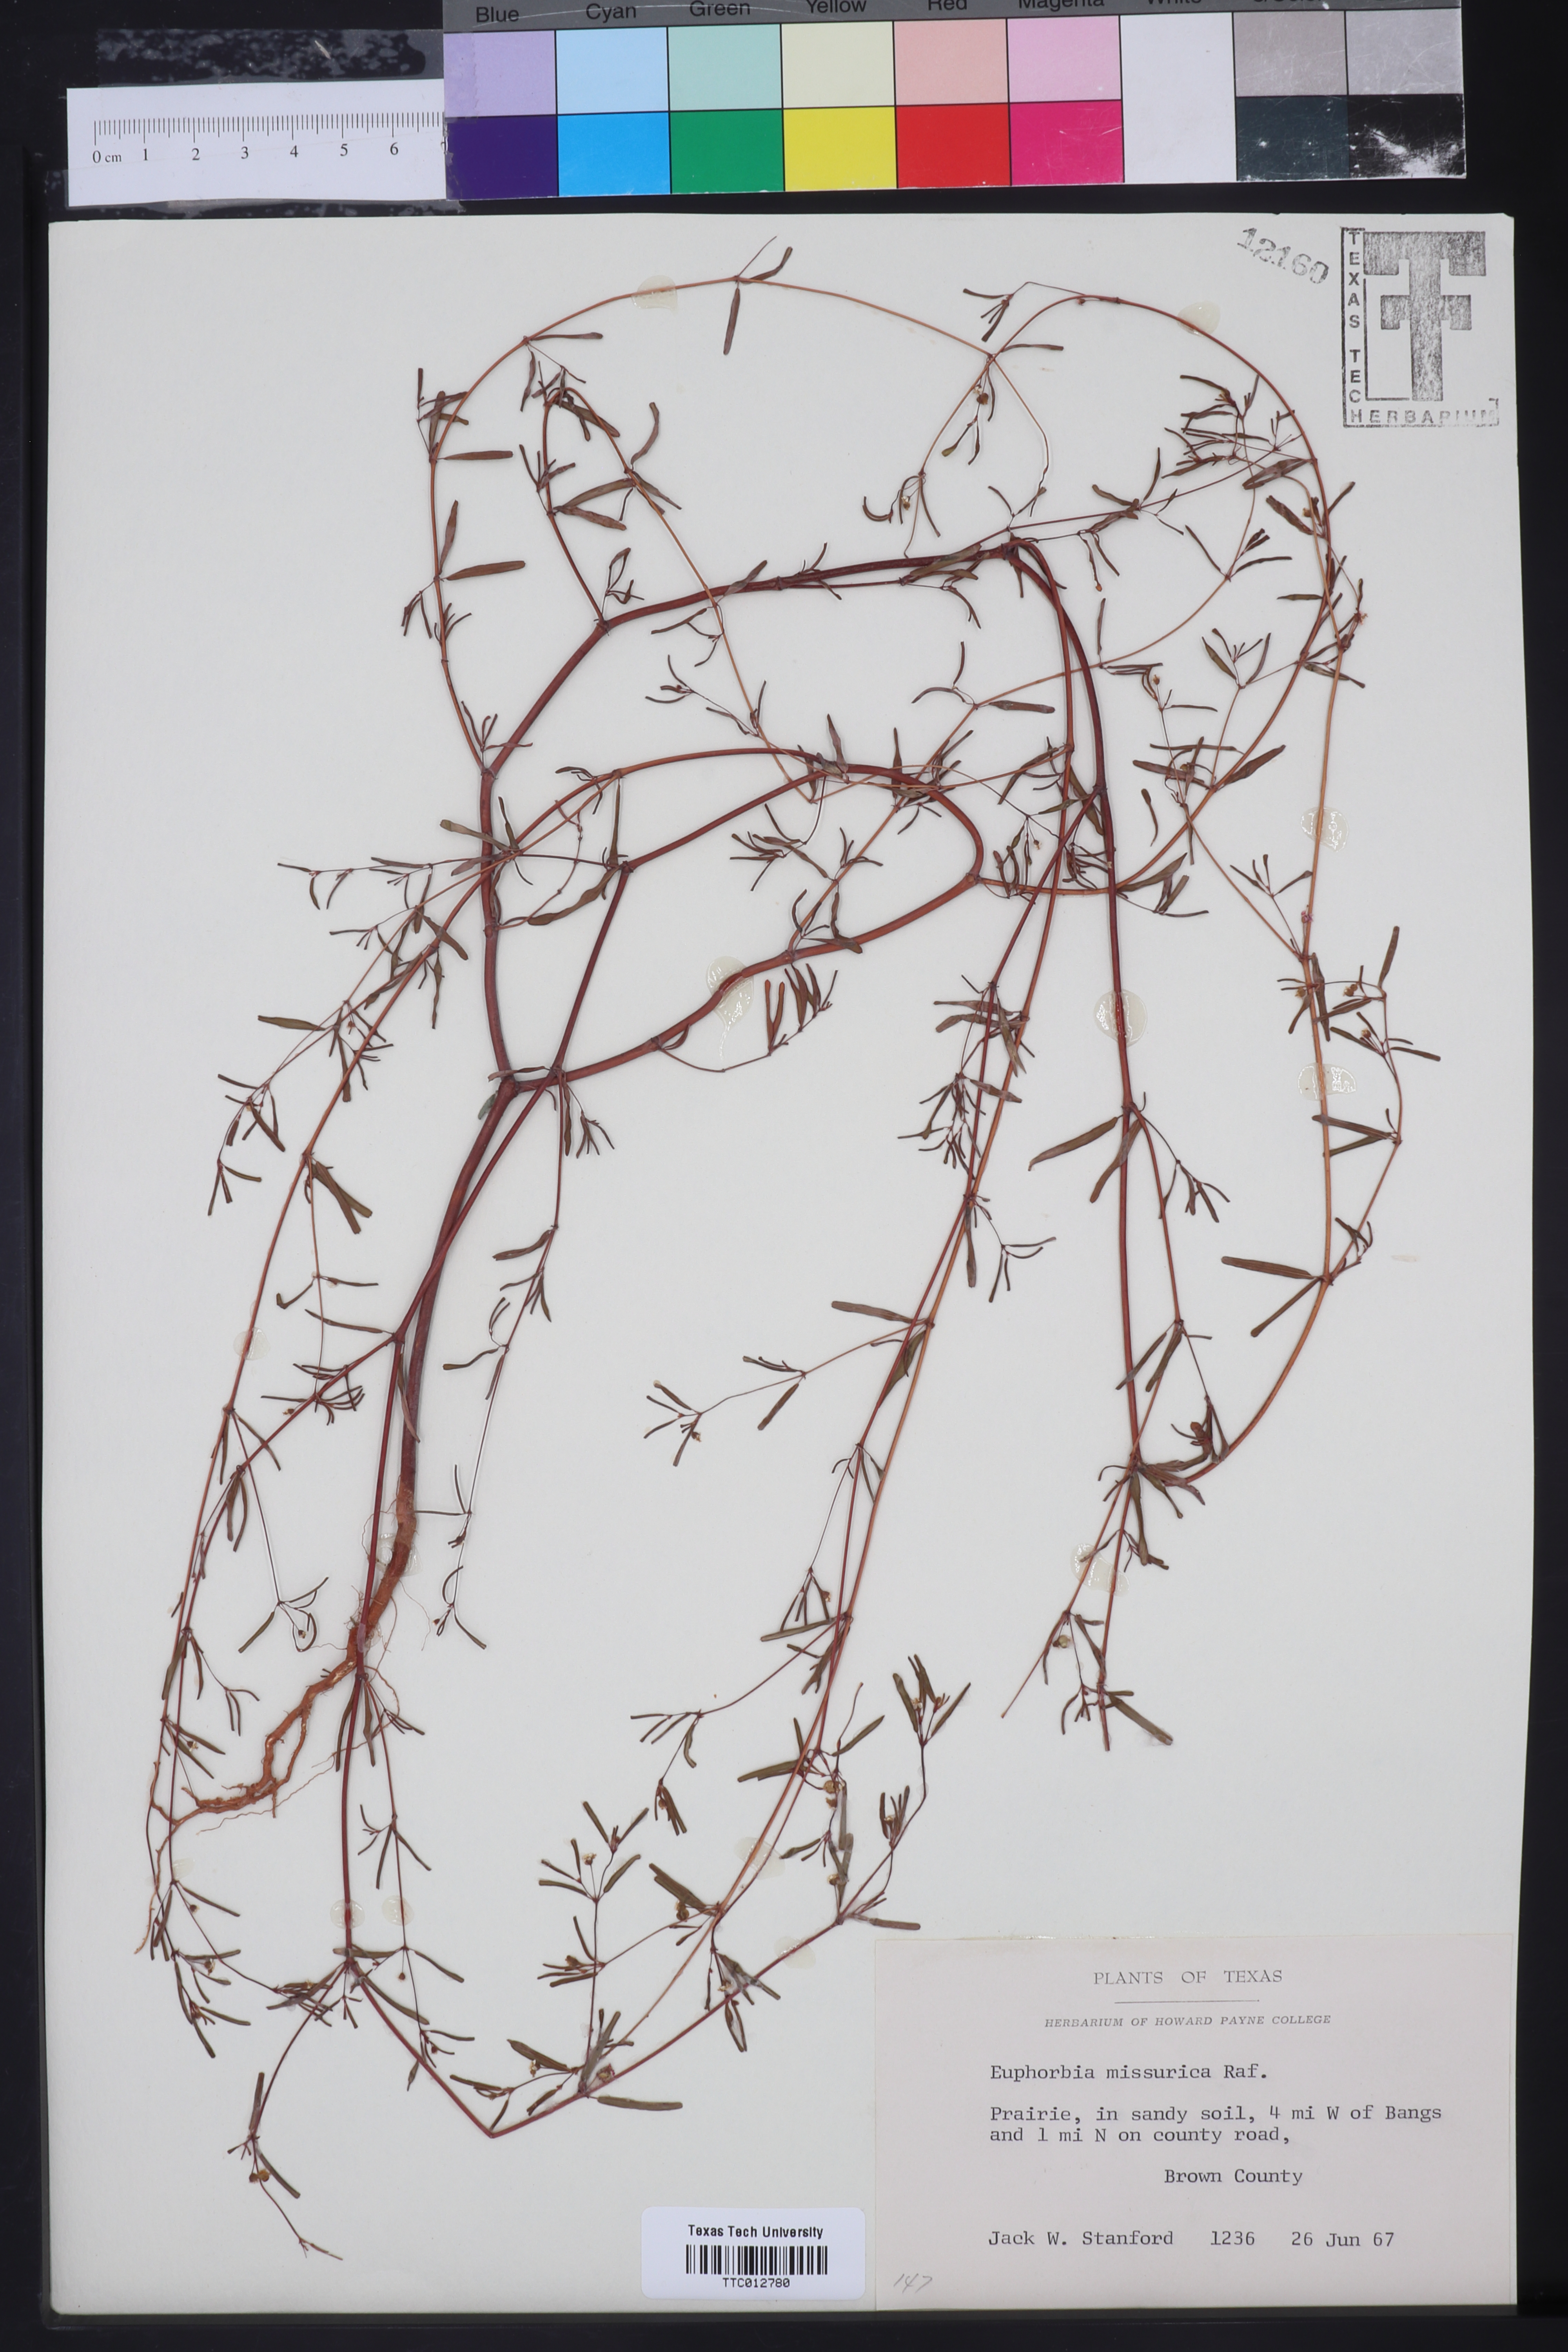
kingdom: Plantae
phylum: Tracheophyta
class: Magnoliopsida
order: Malpighiales
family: Euphorbiaceae
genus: Euphorbia
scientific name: Euphorbia missurica
